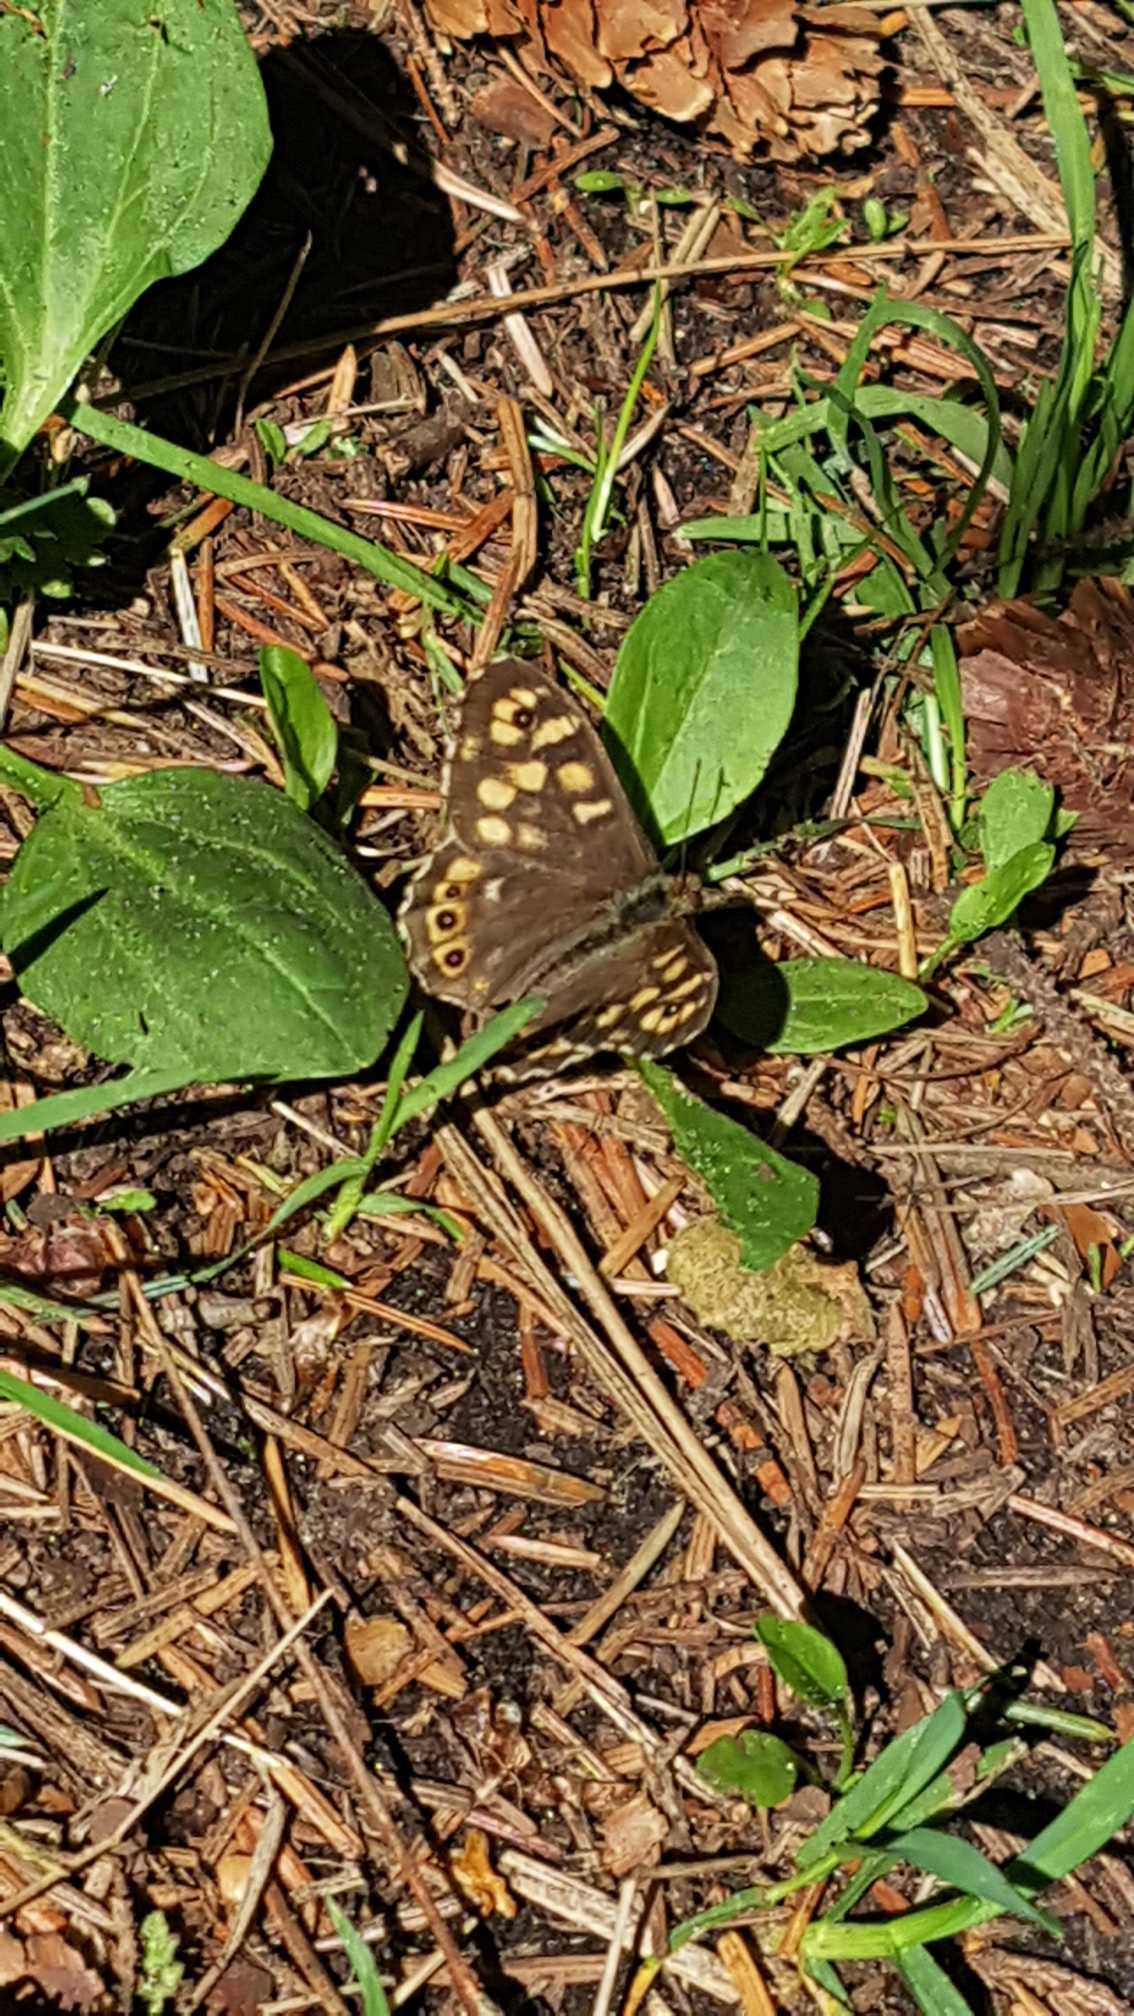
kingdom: Animalia
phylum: Arthropoda
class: Insecta
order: Lepidoptera
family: Nymphalidae
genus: Pararge
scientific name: Pararge aegeria
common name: Skovrandøje
